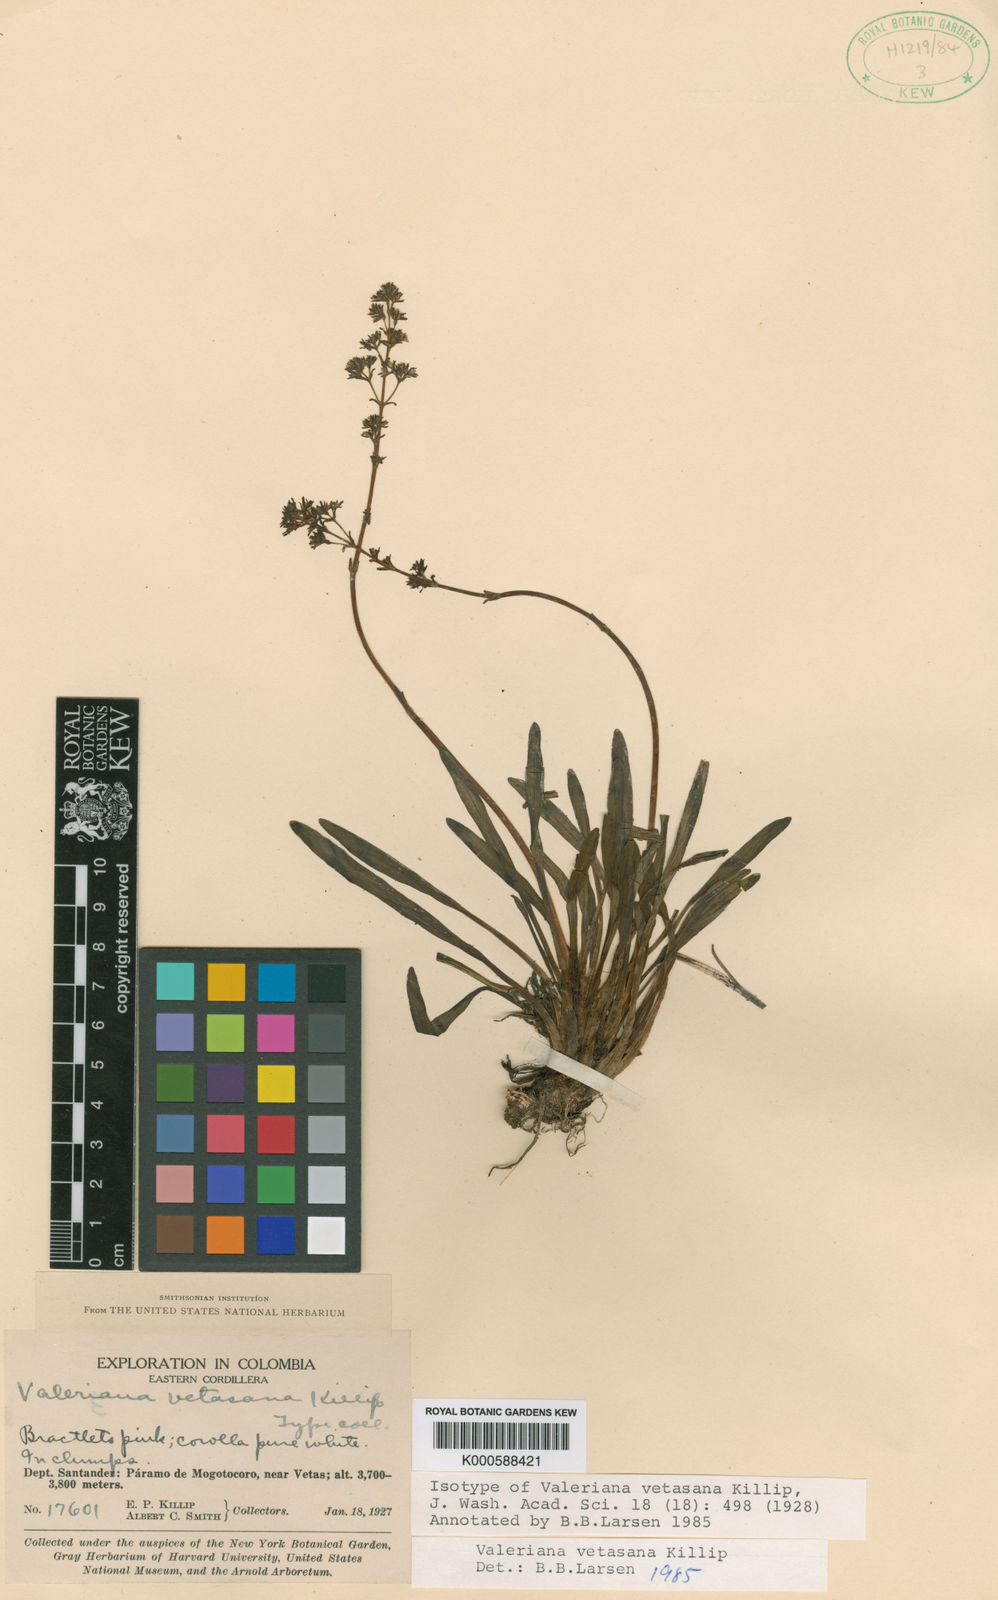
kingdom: Plantae
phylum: Tracheophyta
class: Magnoliopsida
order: Dipsacales
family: Caprifoliaceae
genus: Valeriana
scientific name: Valeriana vetasana
